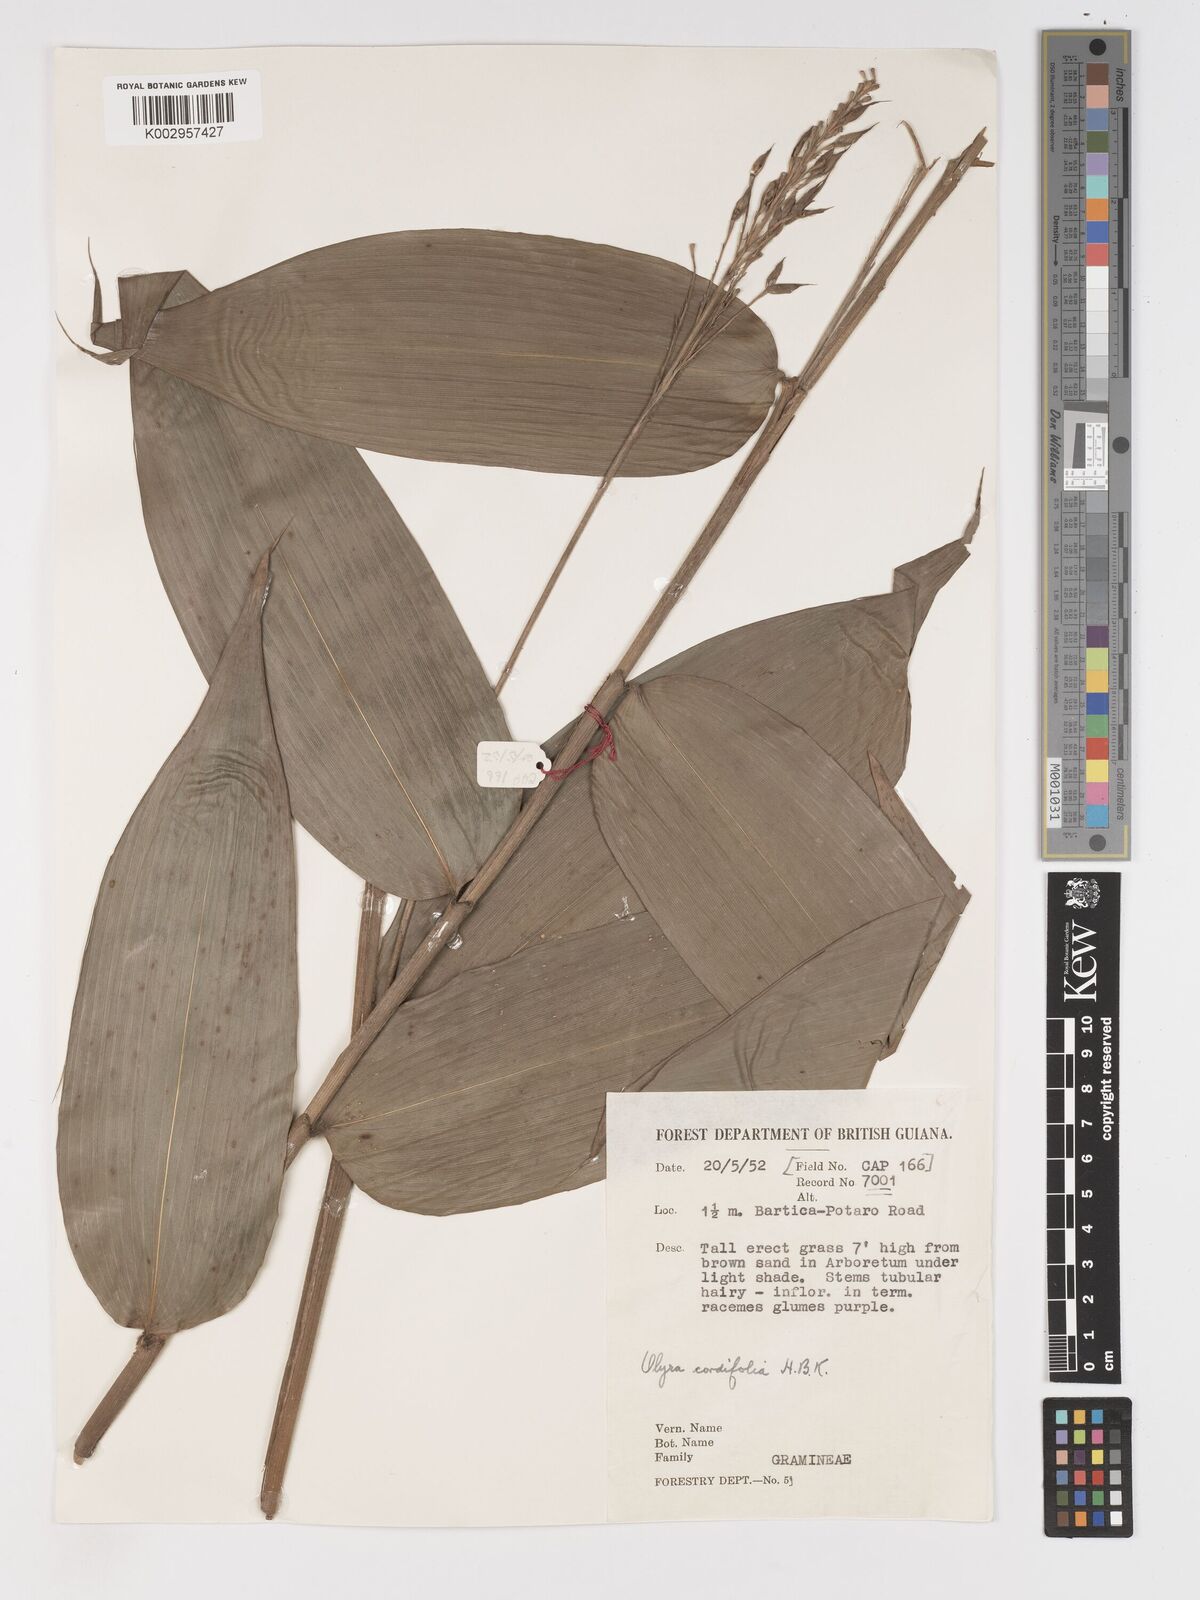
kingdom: Plantae
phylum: Tracheophyta
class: Liliopsida
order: Poales
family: Poaceae
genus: Olyra
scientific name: Olyra latifolia
